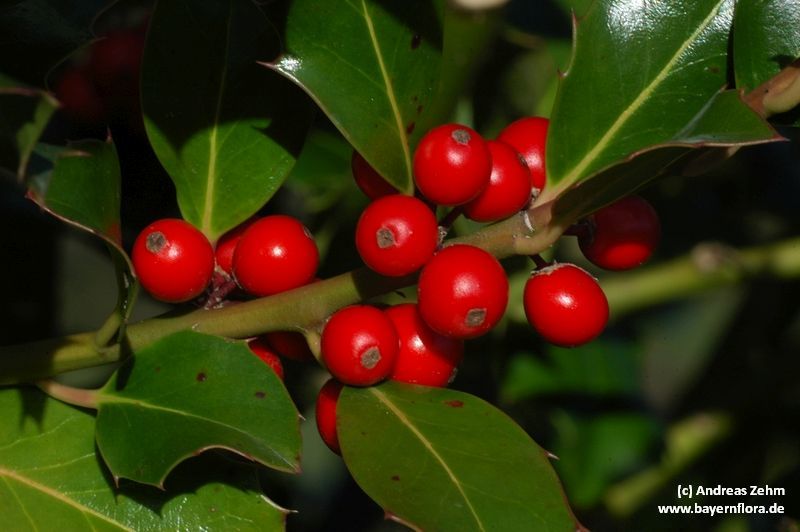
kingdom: Plantae
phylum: Tracheophyta
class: Magnoliopsida
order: Aquifoliales
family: Aquifoliaceae
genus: Ilex
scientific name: Ilex aquifolium
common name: English holly
